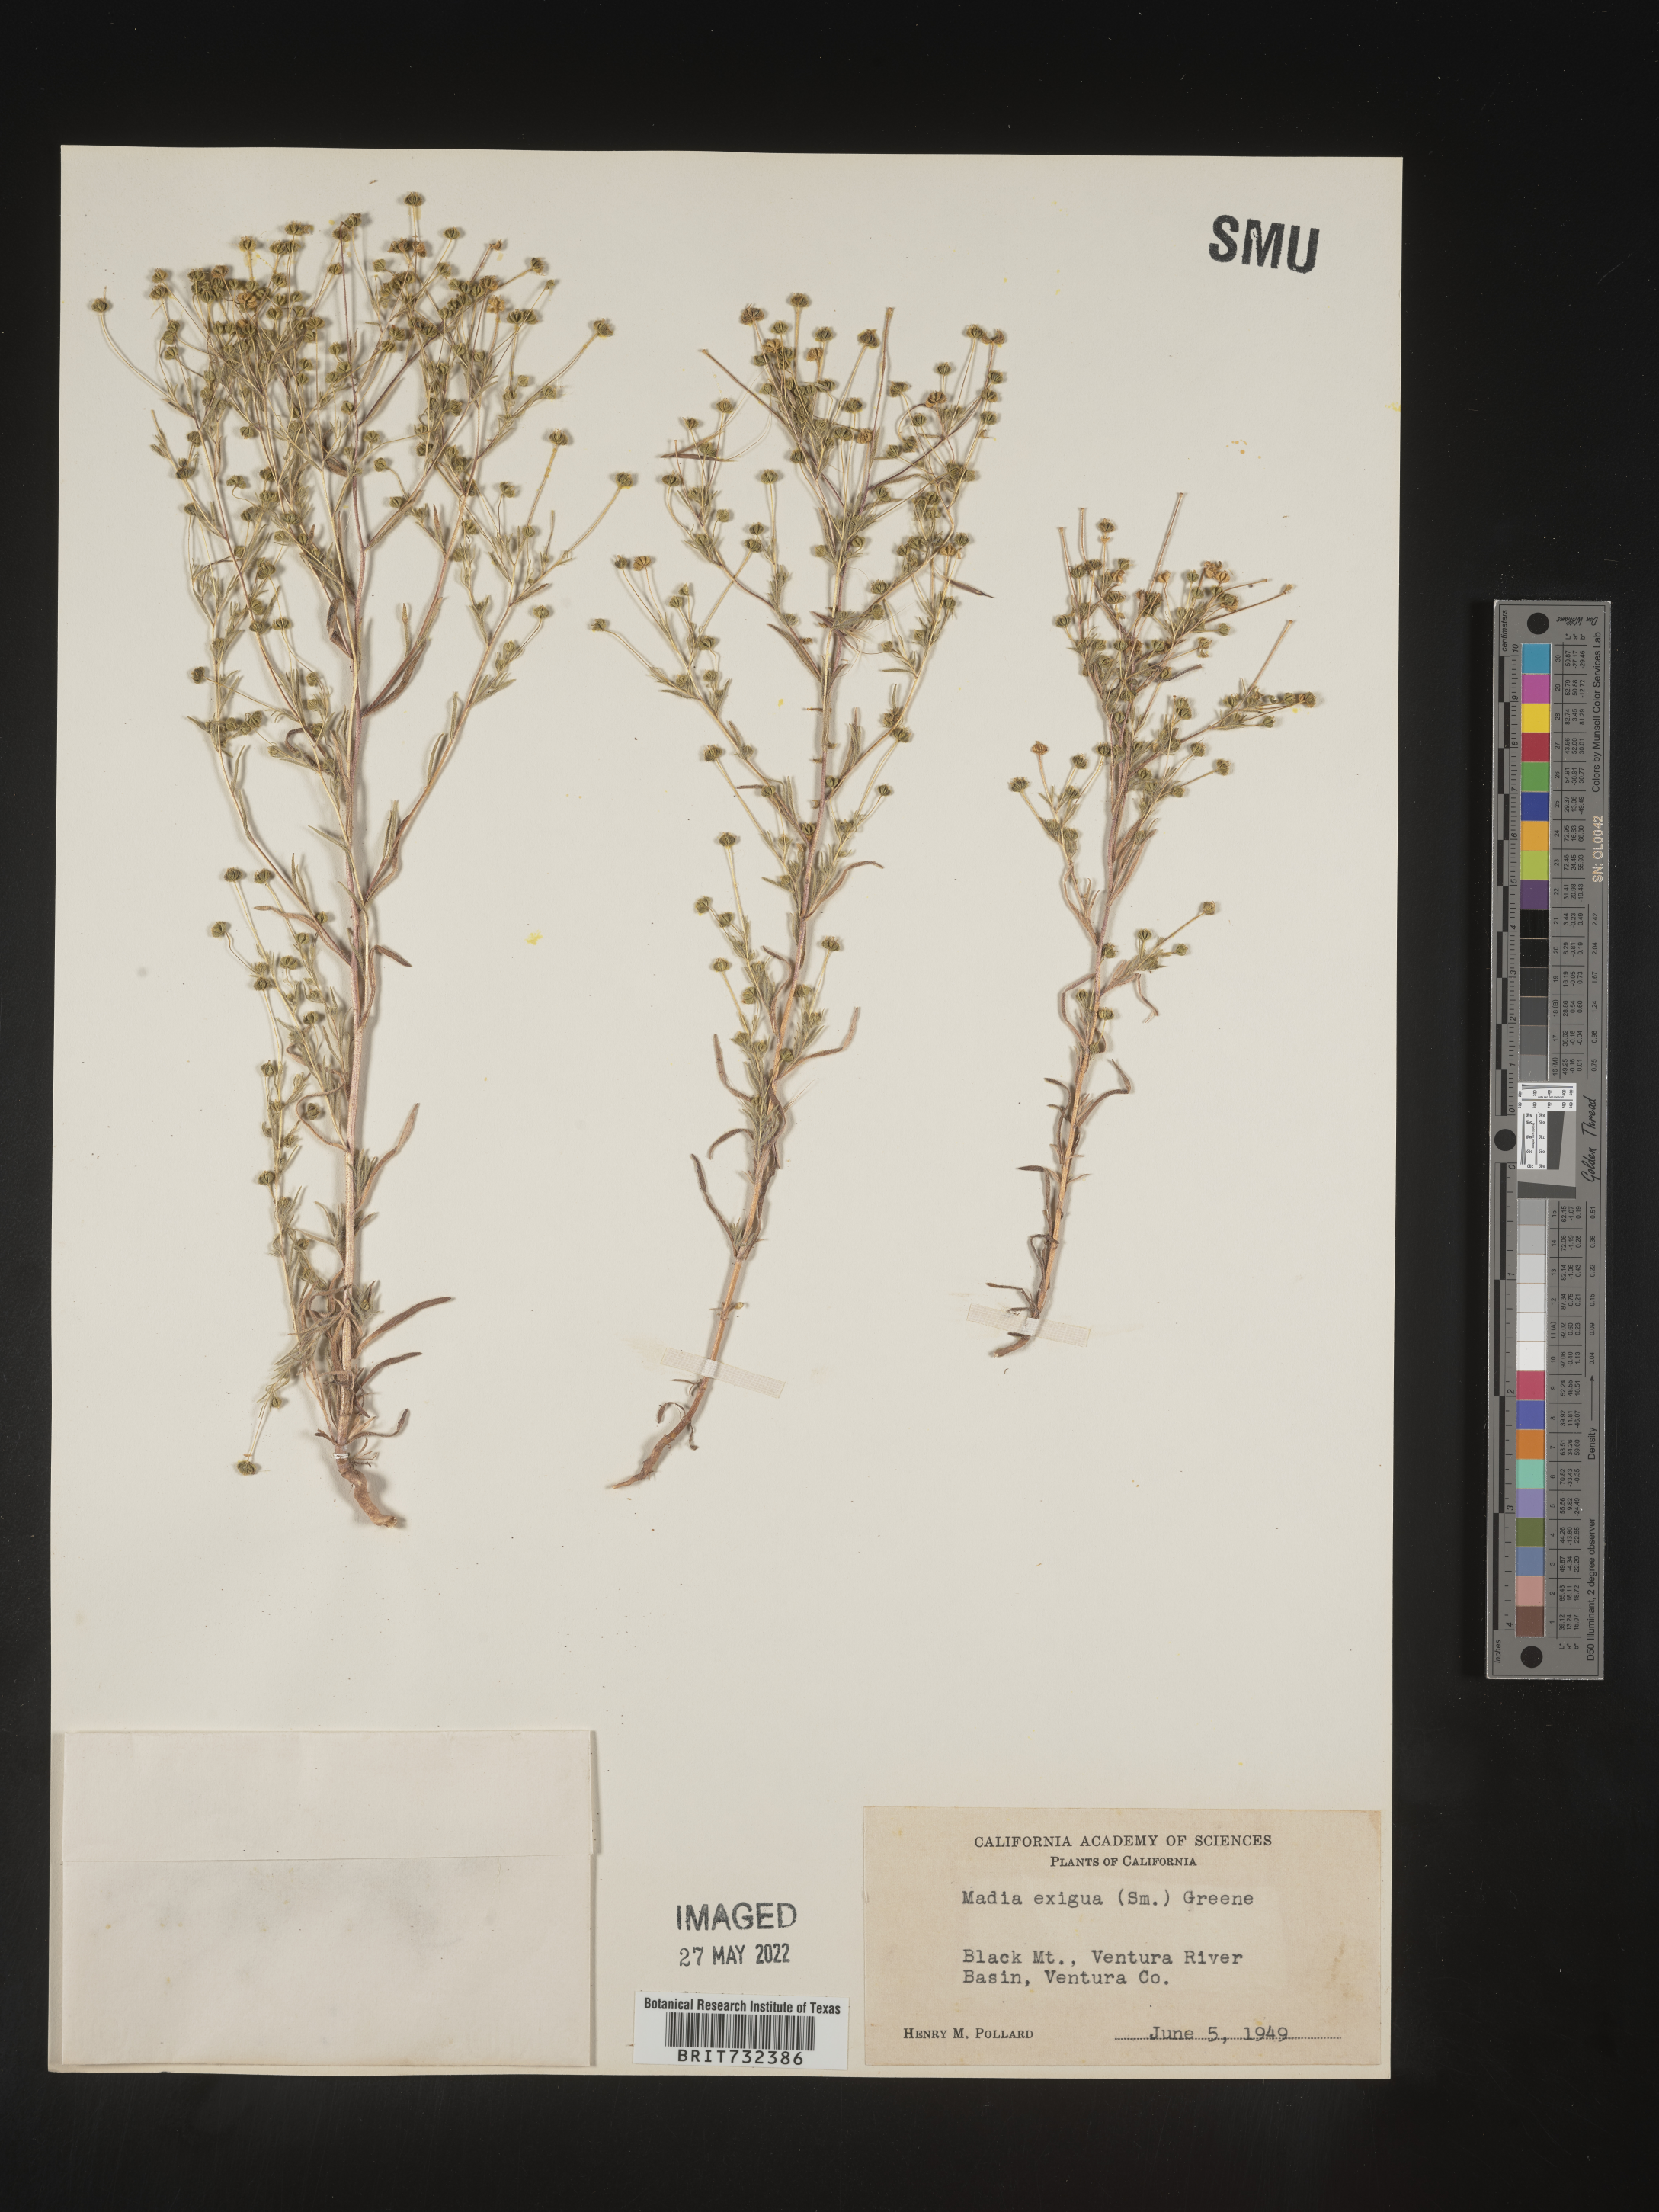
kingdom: Plantae
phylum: Tracheophyta
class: Magnoliopsida
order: Asterales
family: Asteraceae
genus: Madia
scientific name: Madia
